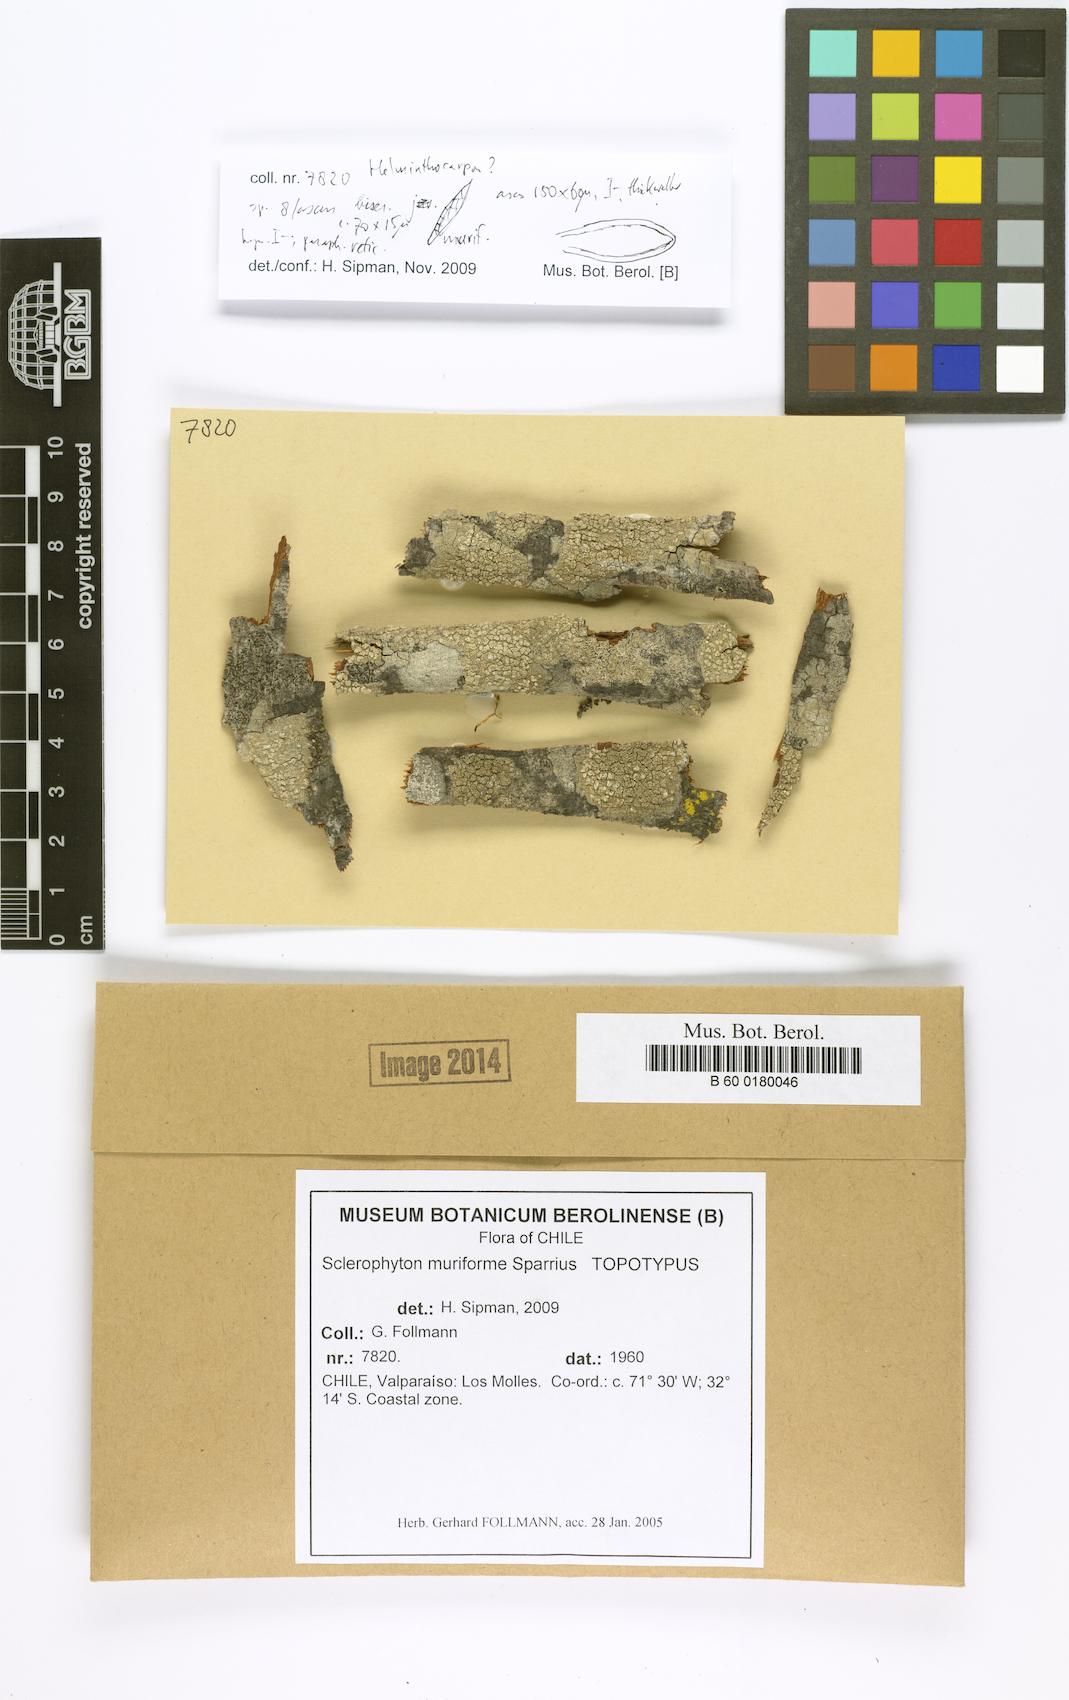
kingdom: Fungi
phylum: Ascomycota
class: Arthoniomycetes
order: Arthoniales
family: Roccellographaceae
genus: Roccellographa
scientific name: Roccellographa muriformis
